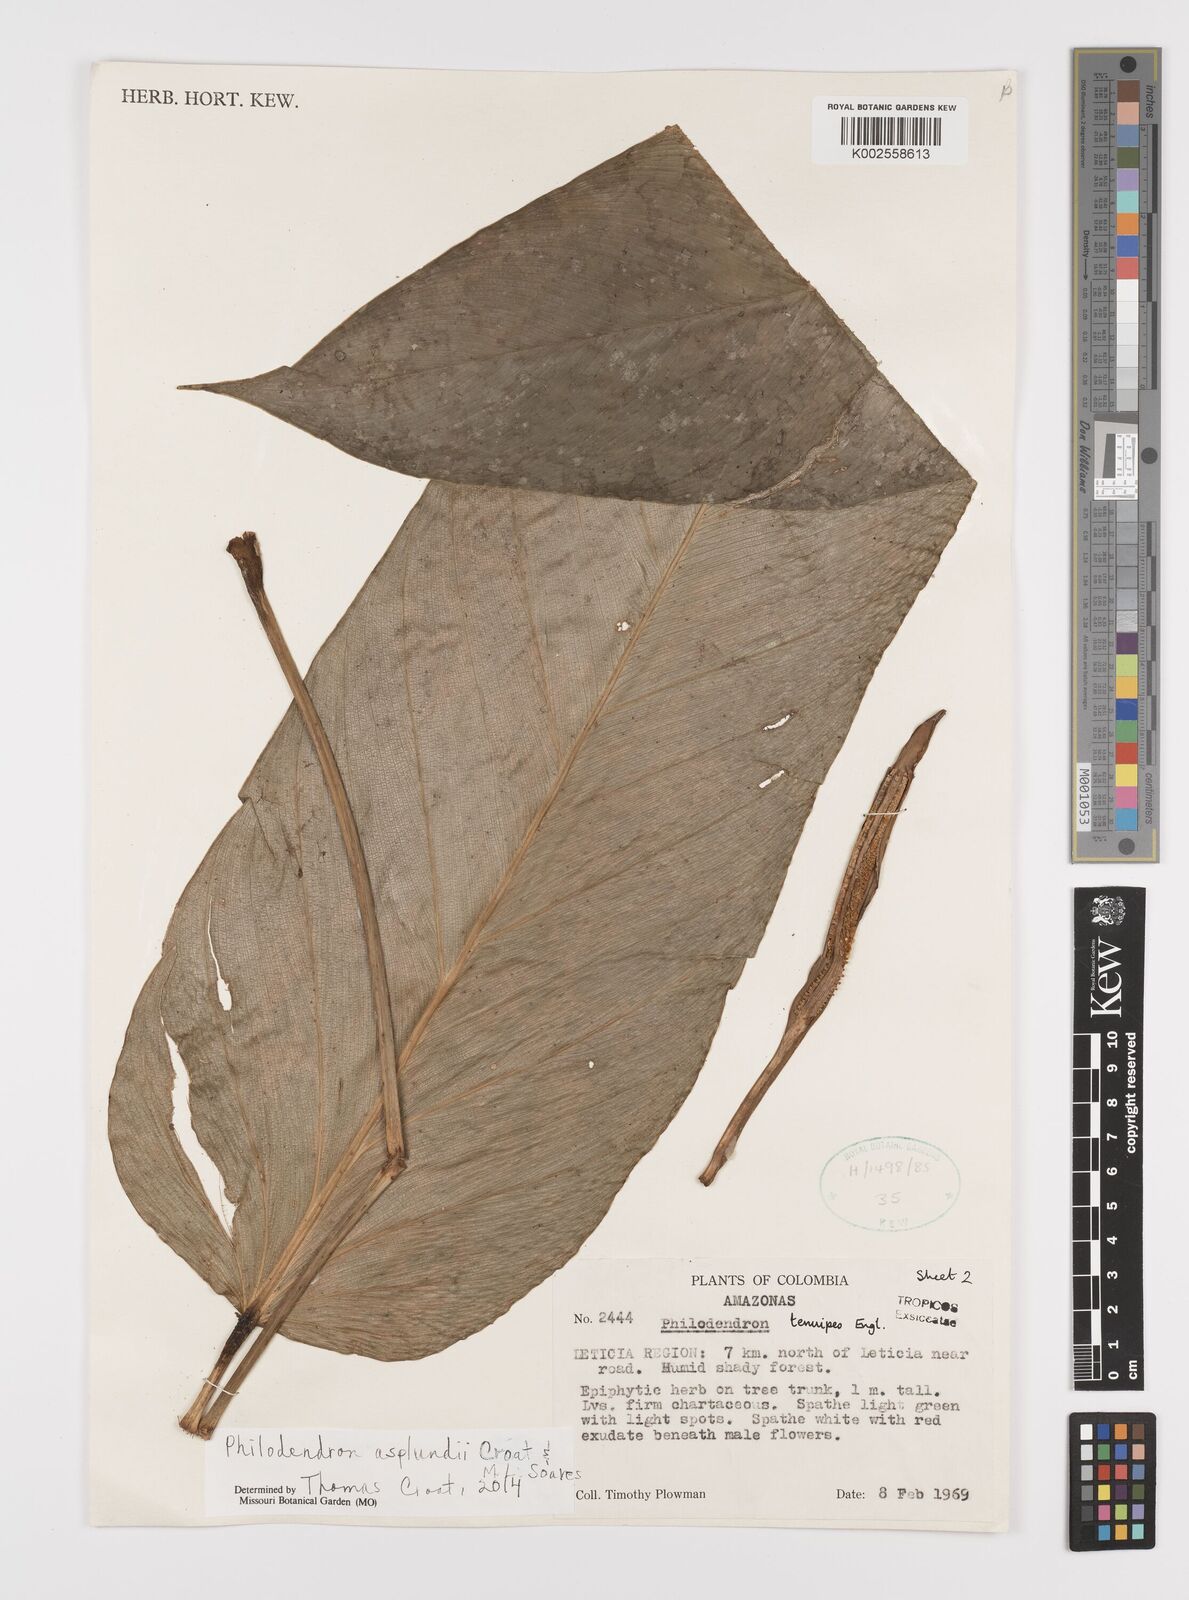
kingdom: Plantae
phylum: Tracheophyta
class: Liliopsida
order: Alismatales
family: Araceae
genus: Philodendron
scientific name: Philodendron asplundii
